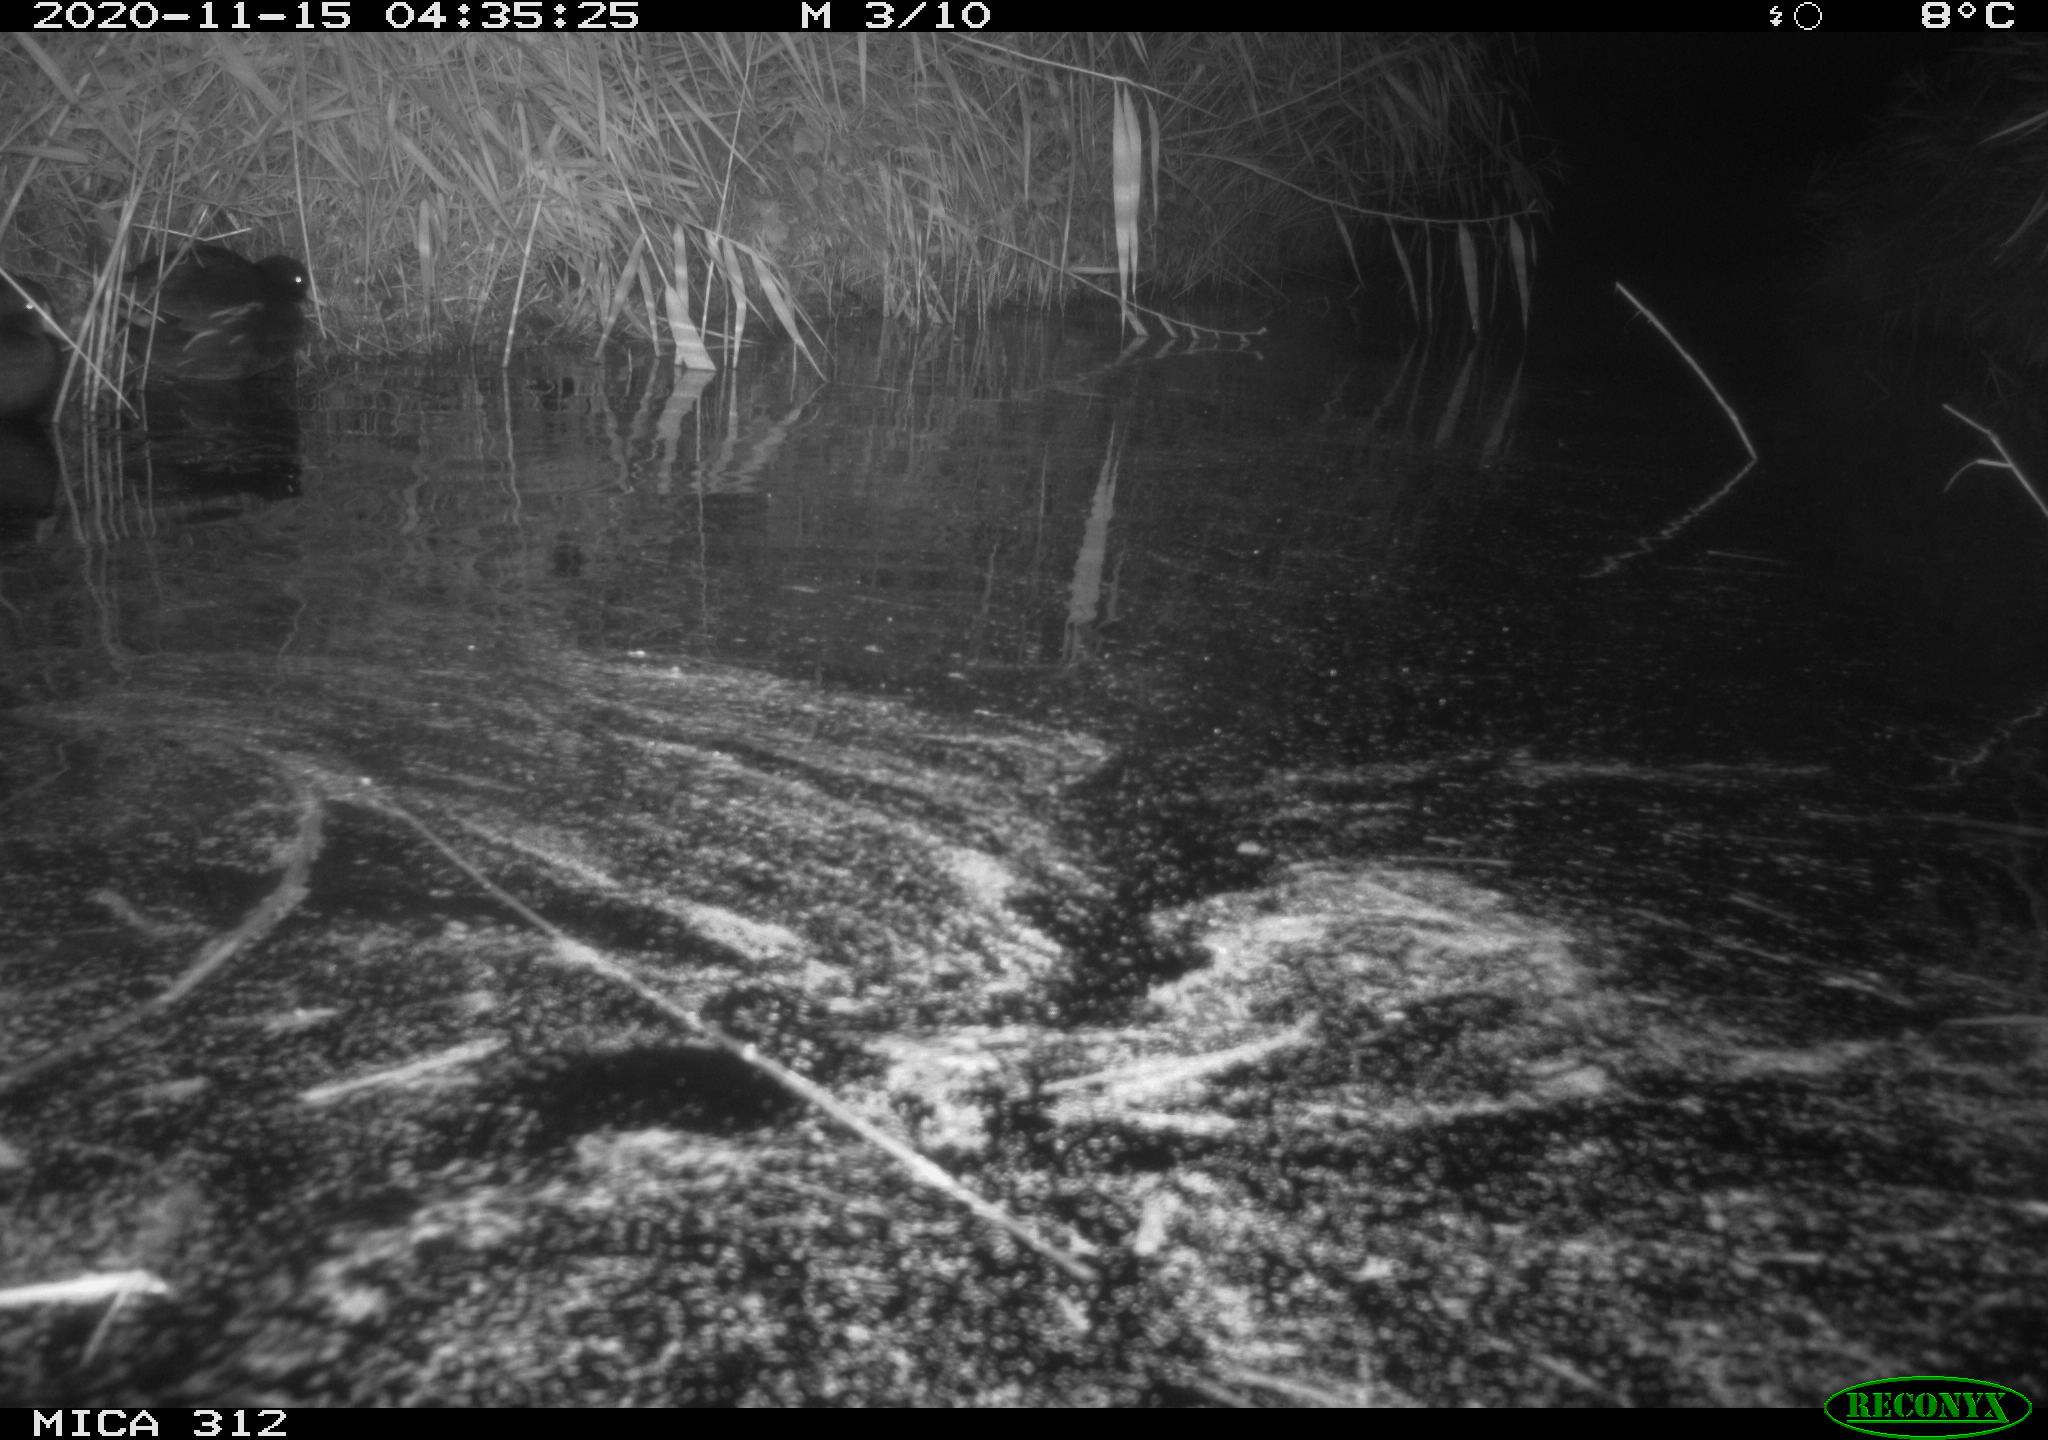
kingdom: Animalia
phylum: Chordata
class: Aves
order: Gruiformes
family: Rallidae
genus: Gallinula
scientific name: Gallinula chloropus
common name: Common moorhen
